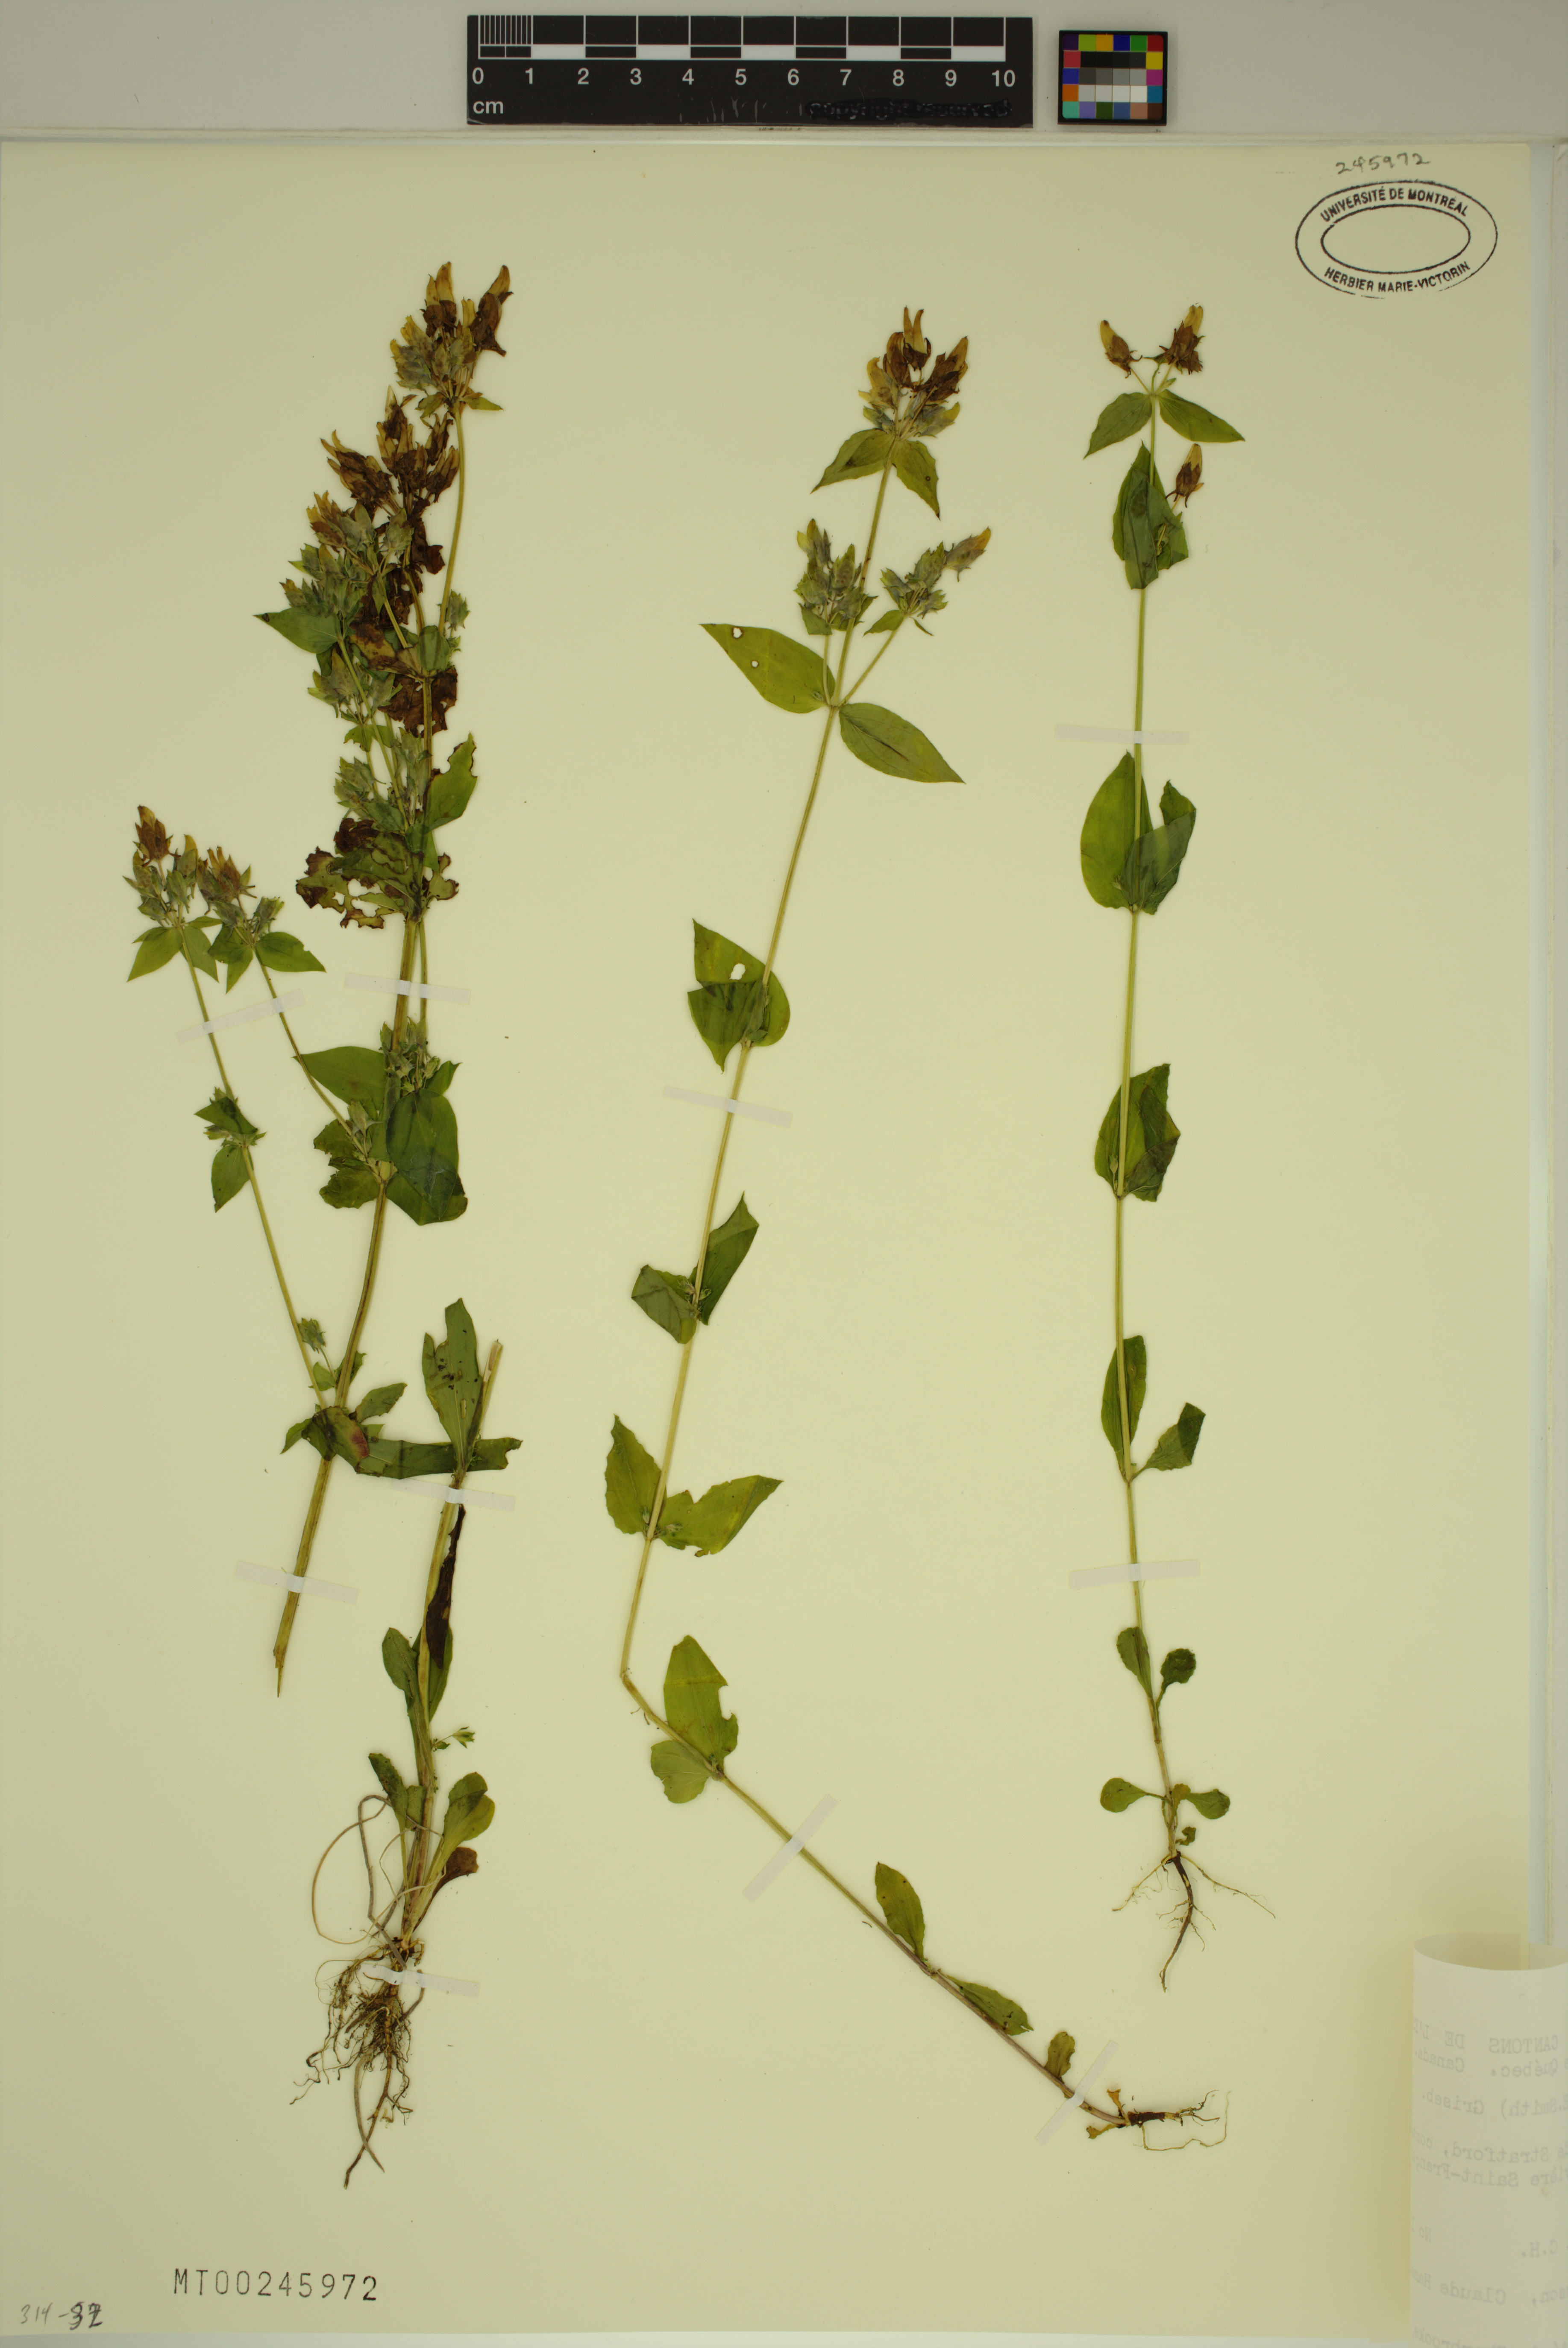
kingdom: Plantae
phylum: Tracheophyta
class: Magnoliopsida
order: Gentianales
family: Gentianaceae
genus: Halenia
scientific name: Halenia deflexa
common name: American spurred gentian
